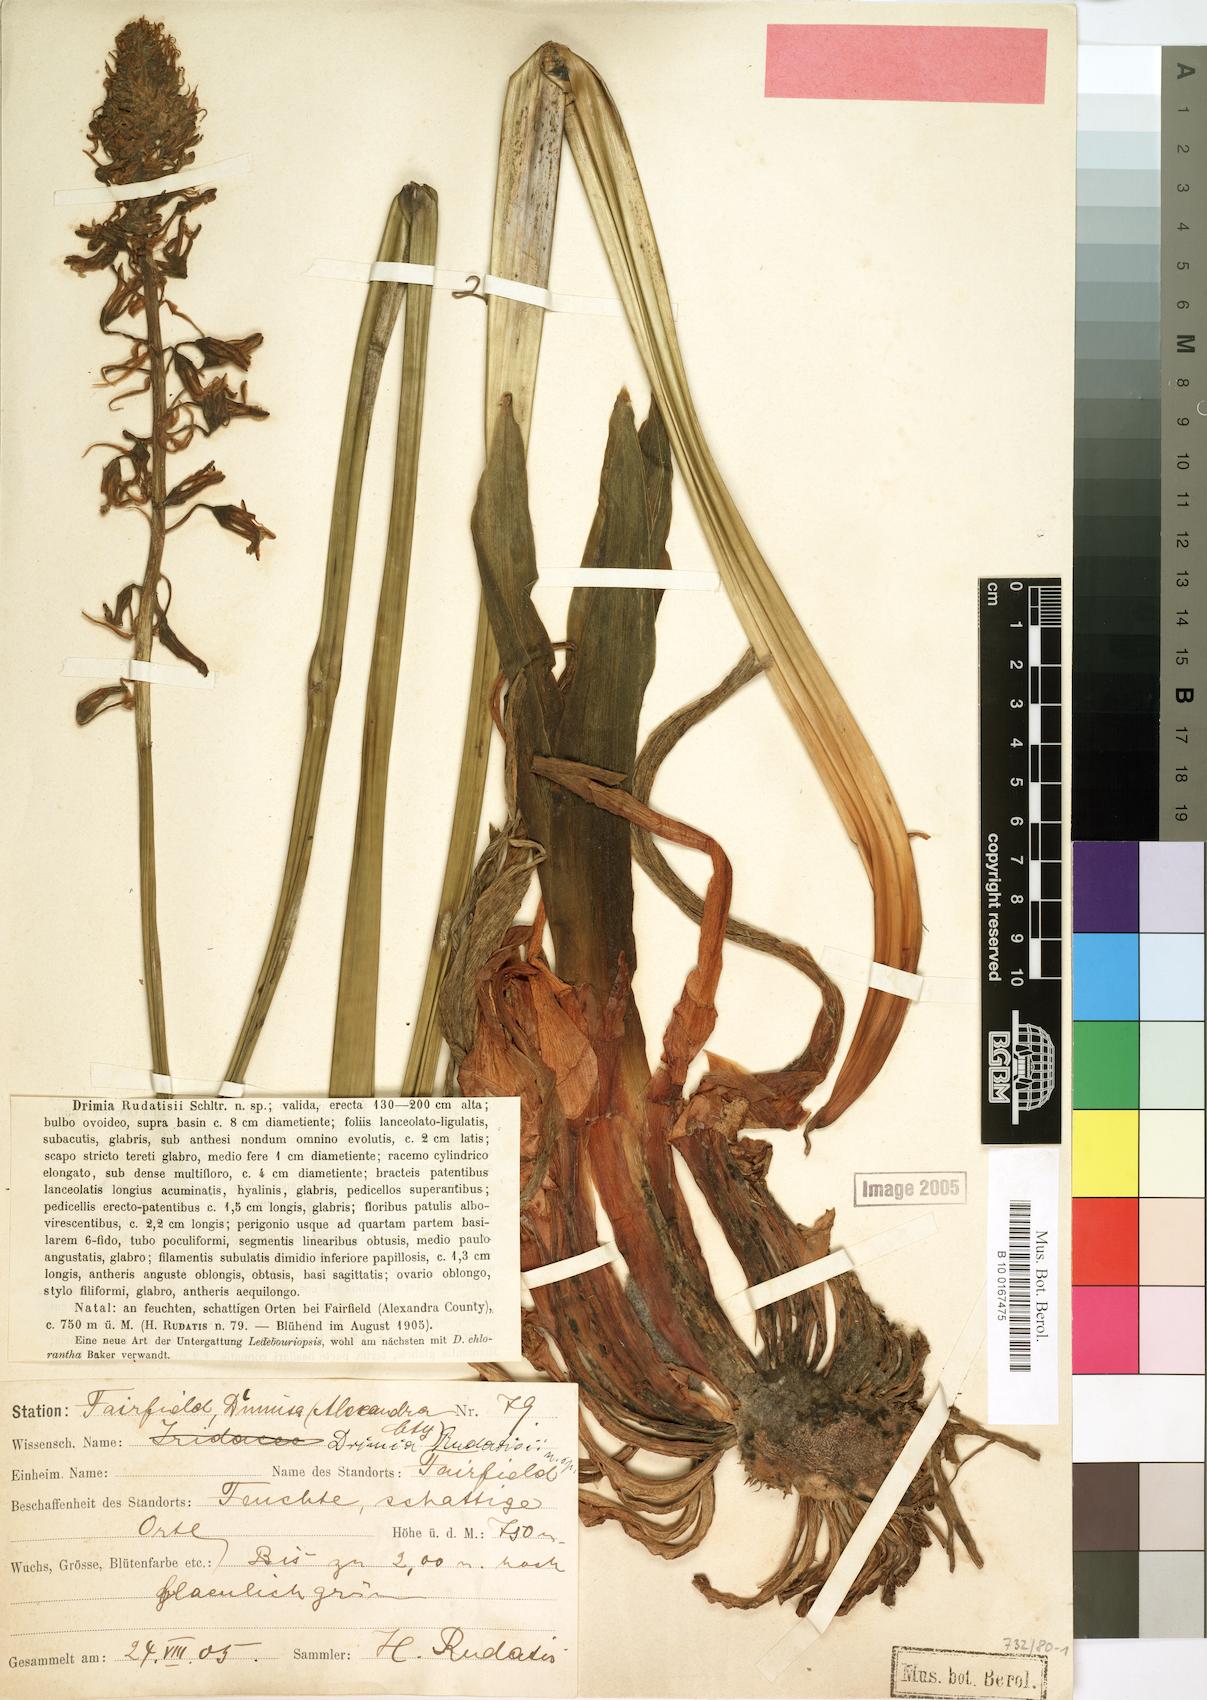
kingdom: Plantae
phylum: Tracheophyta
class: Liliopsida
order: Asparagales
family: Asparagaceae
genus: Drimia
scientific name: Drimia elata
